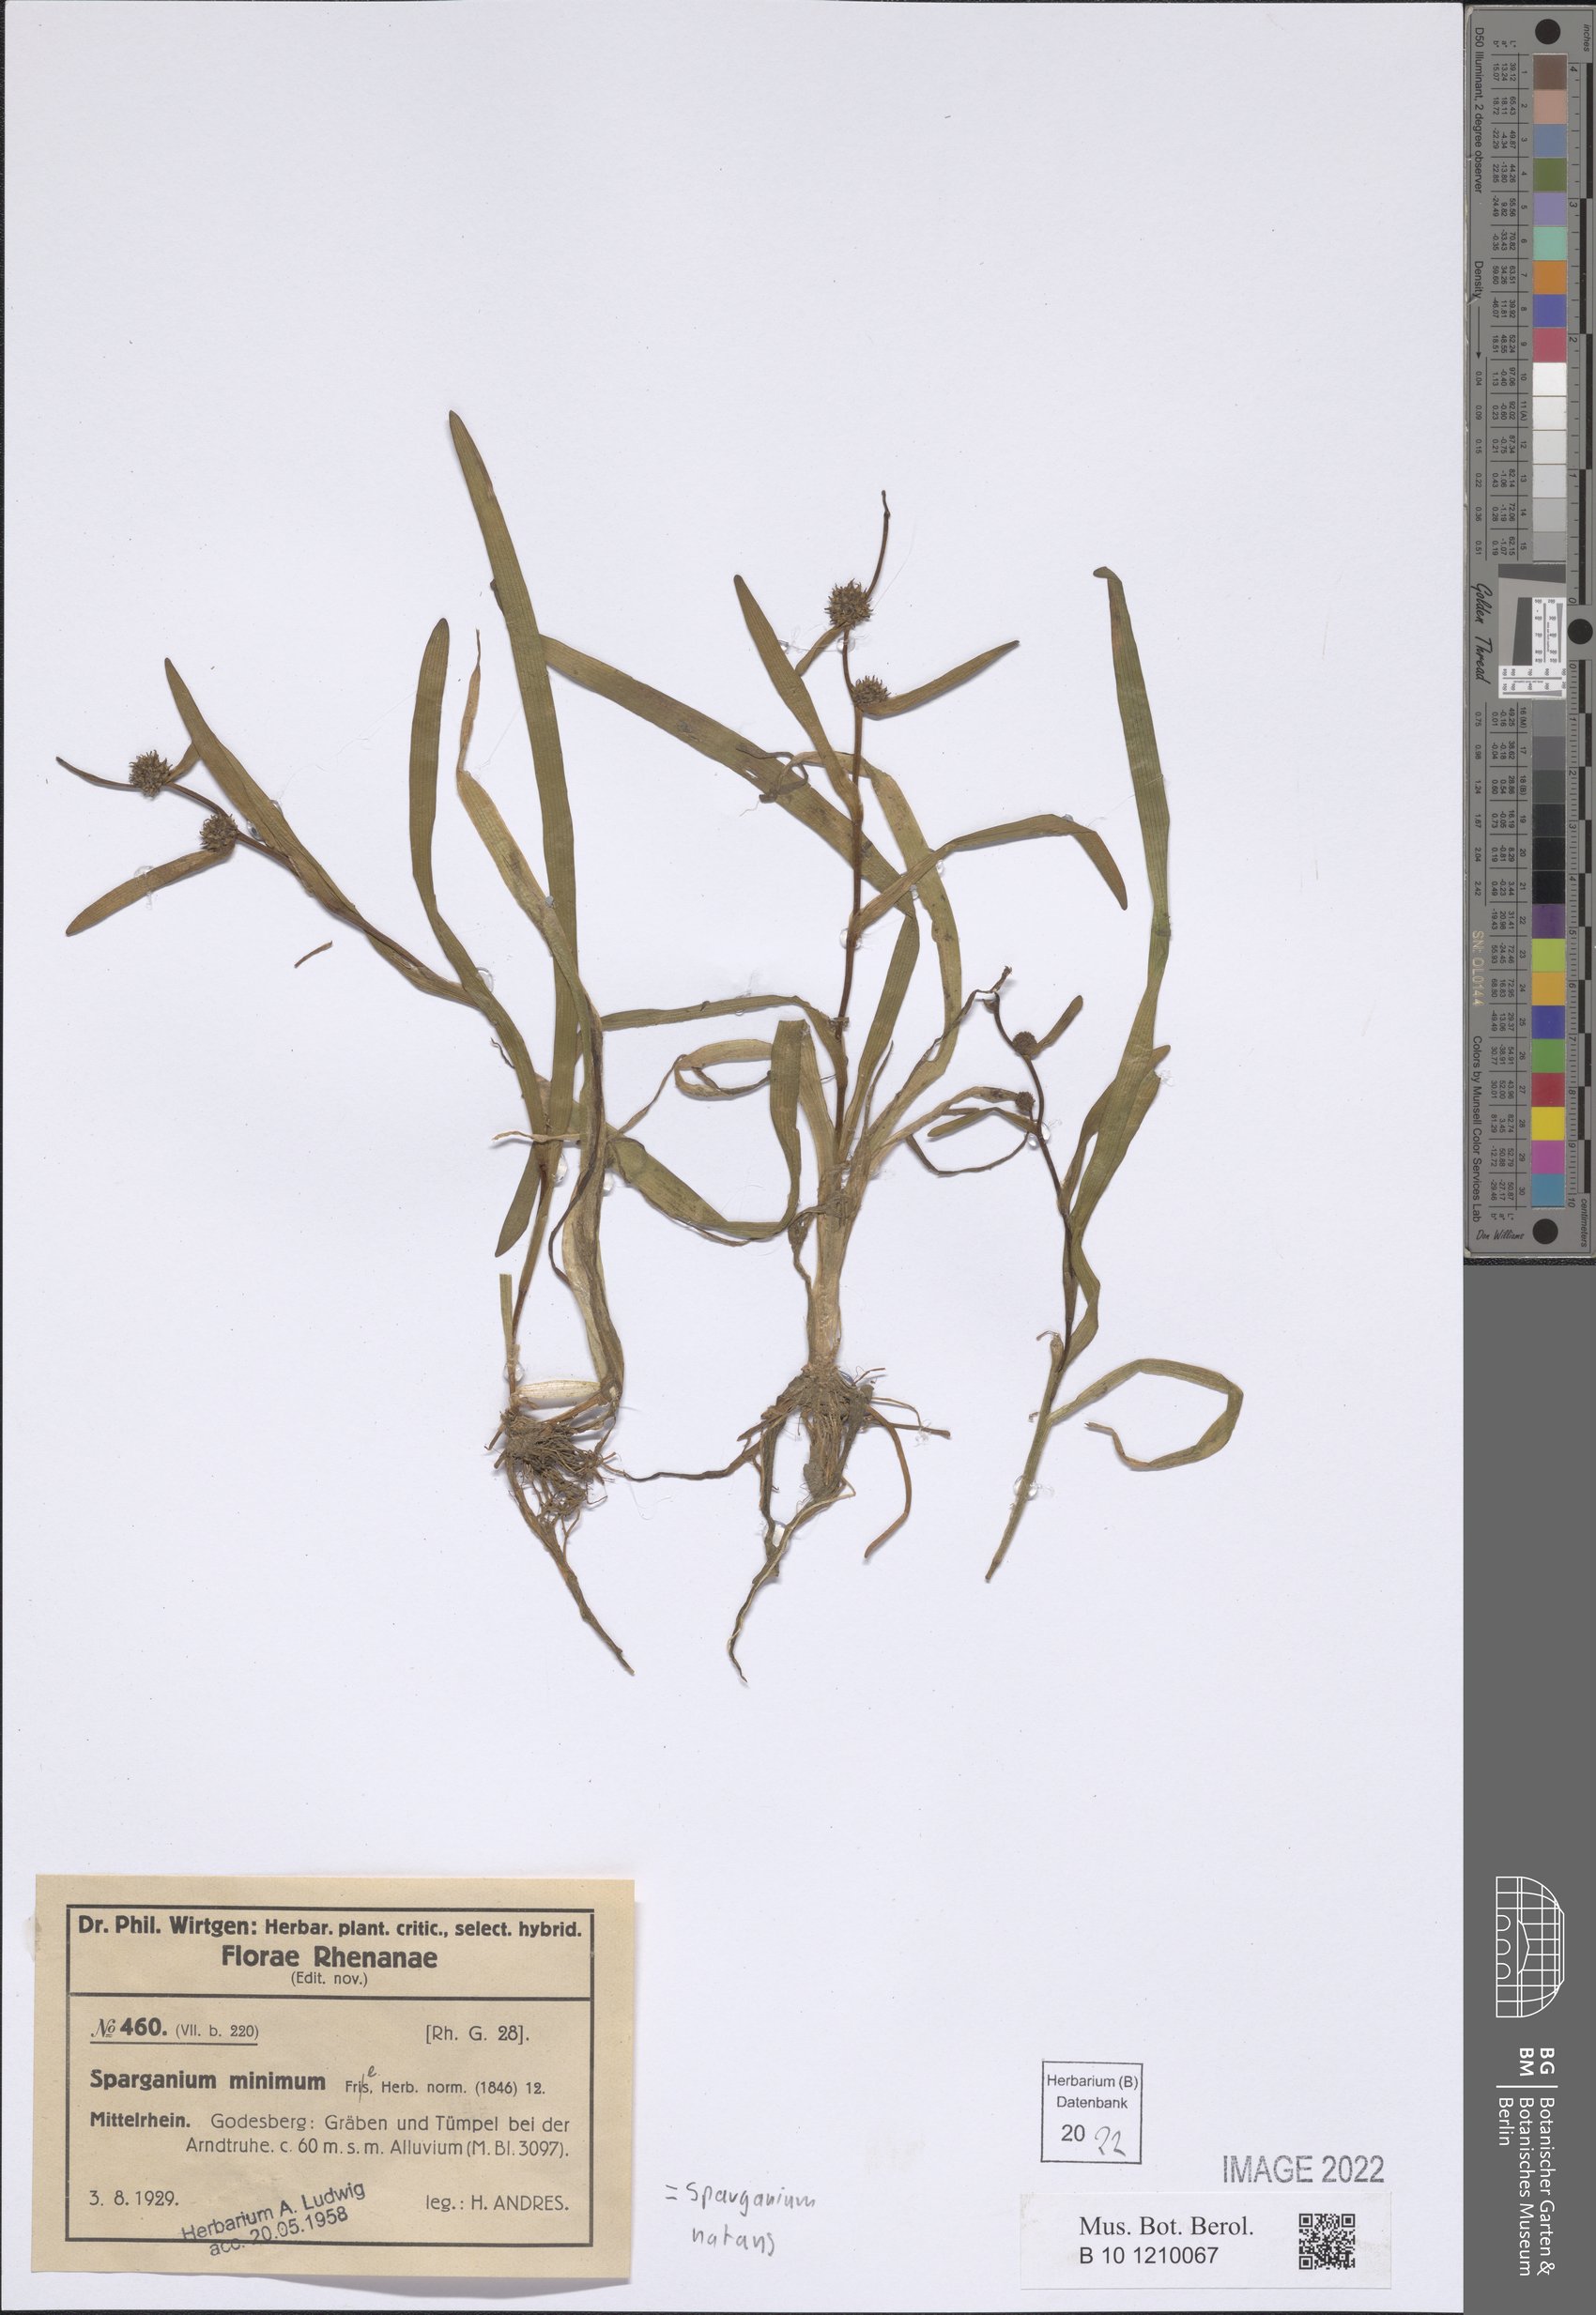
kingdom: Plantae
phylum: Tracheophyta
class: Liliopsida
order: Poales
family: Typhaceae
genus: Sparganium
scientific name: Sparganium natans
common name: Least bur-reed
